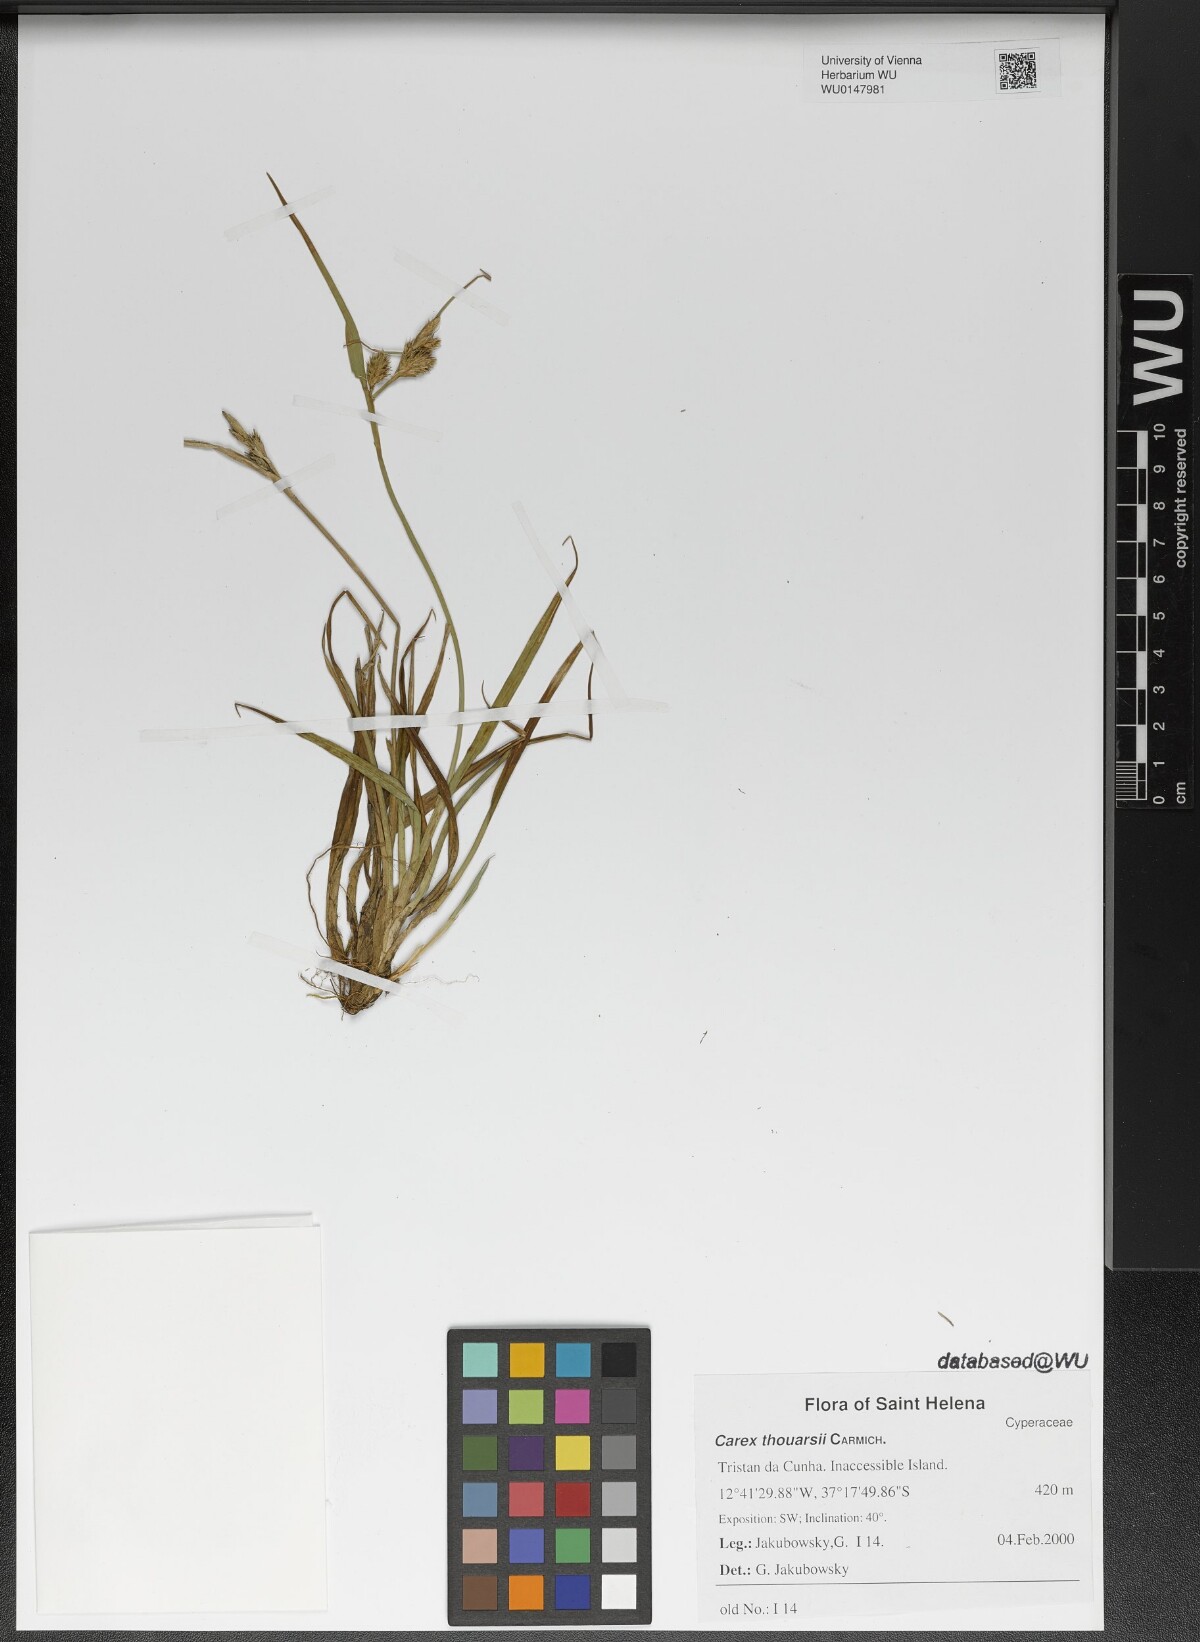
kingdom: Plantae
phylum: Tracheophyta
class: Liliopsida
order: Poales
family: Cyperaceae
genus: Carex
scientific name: Carex thouarsii
